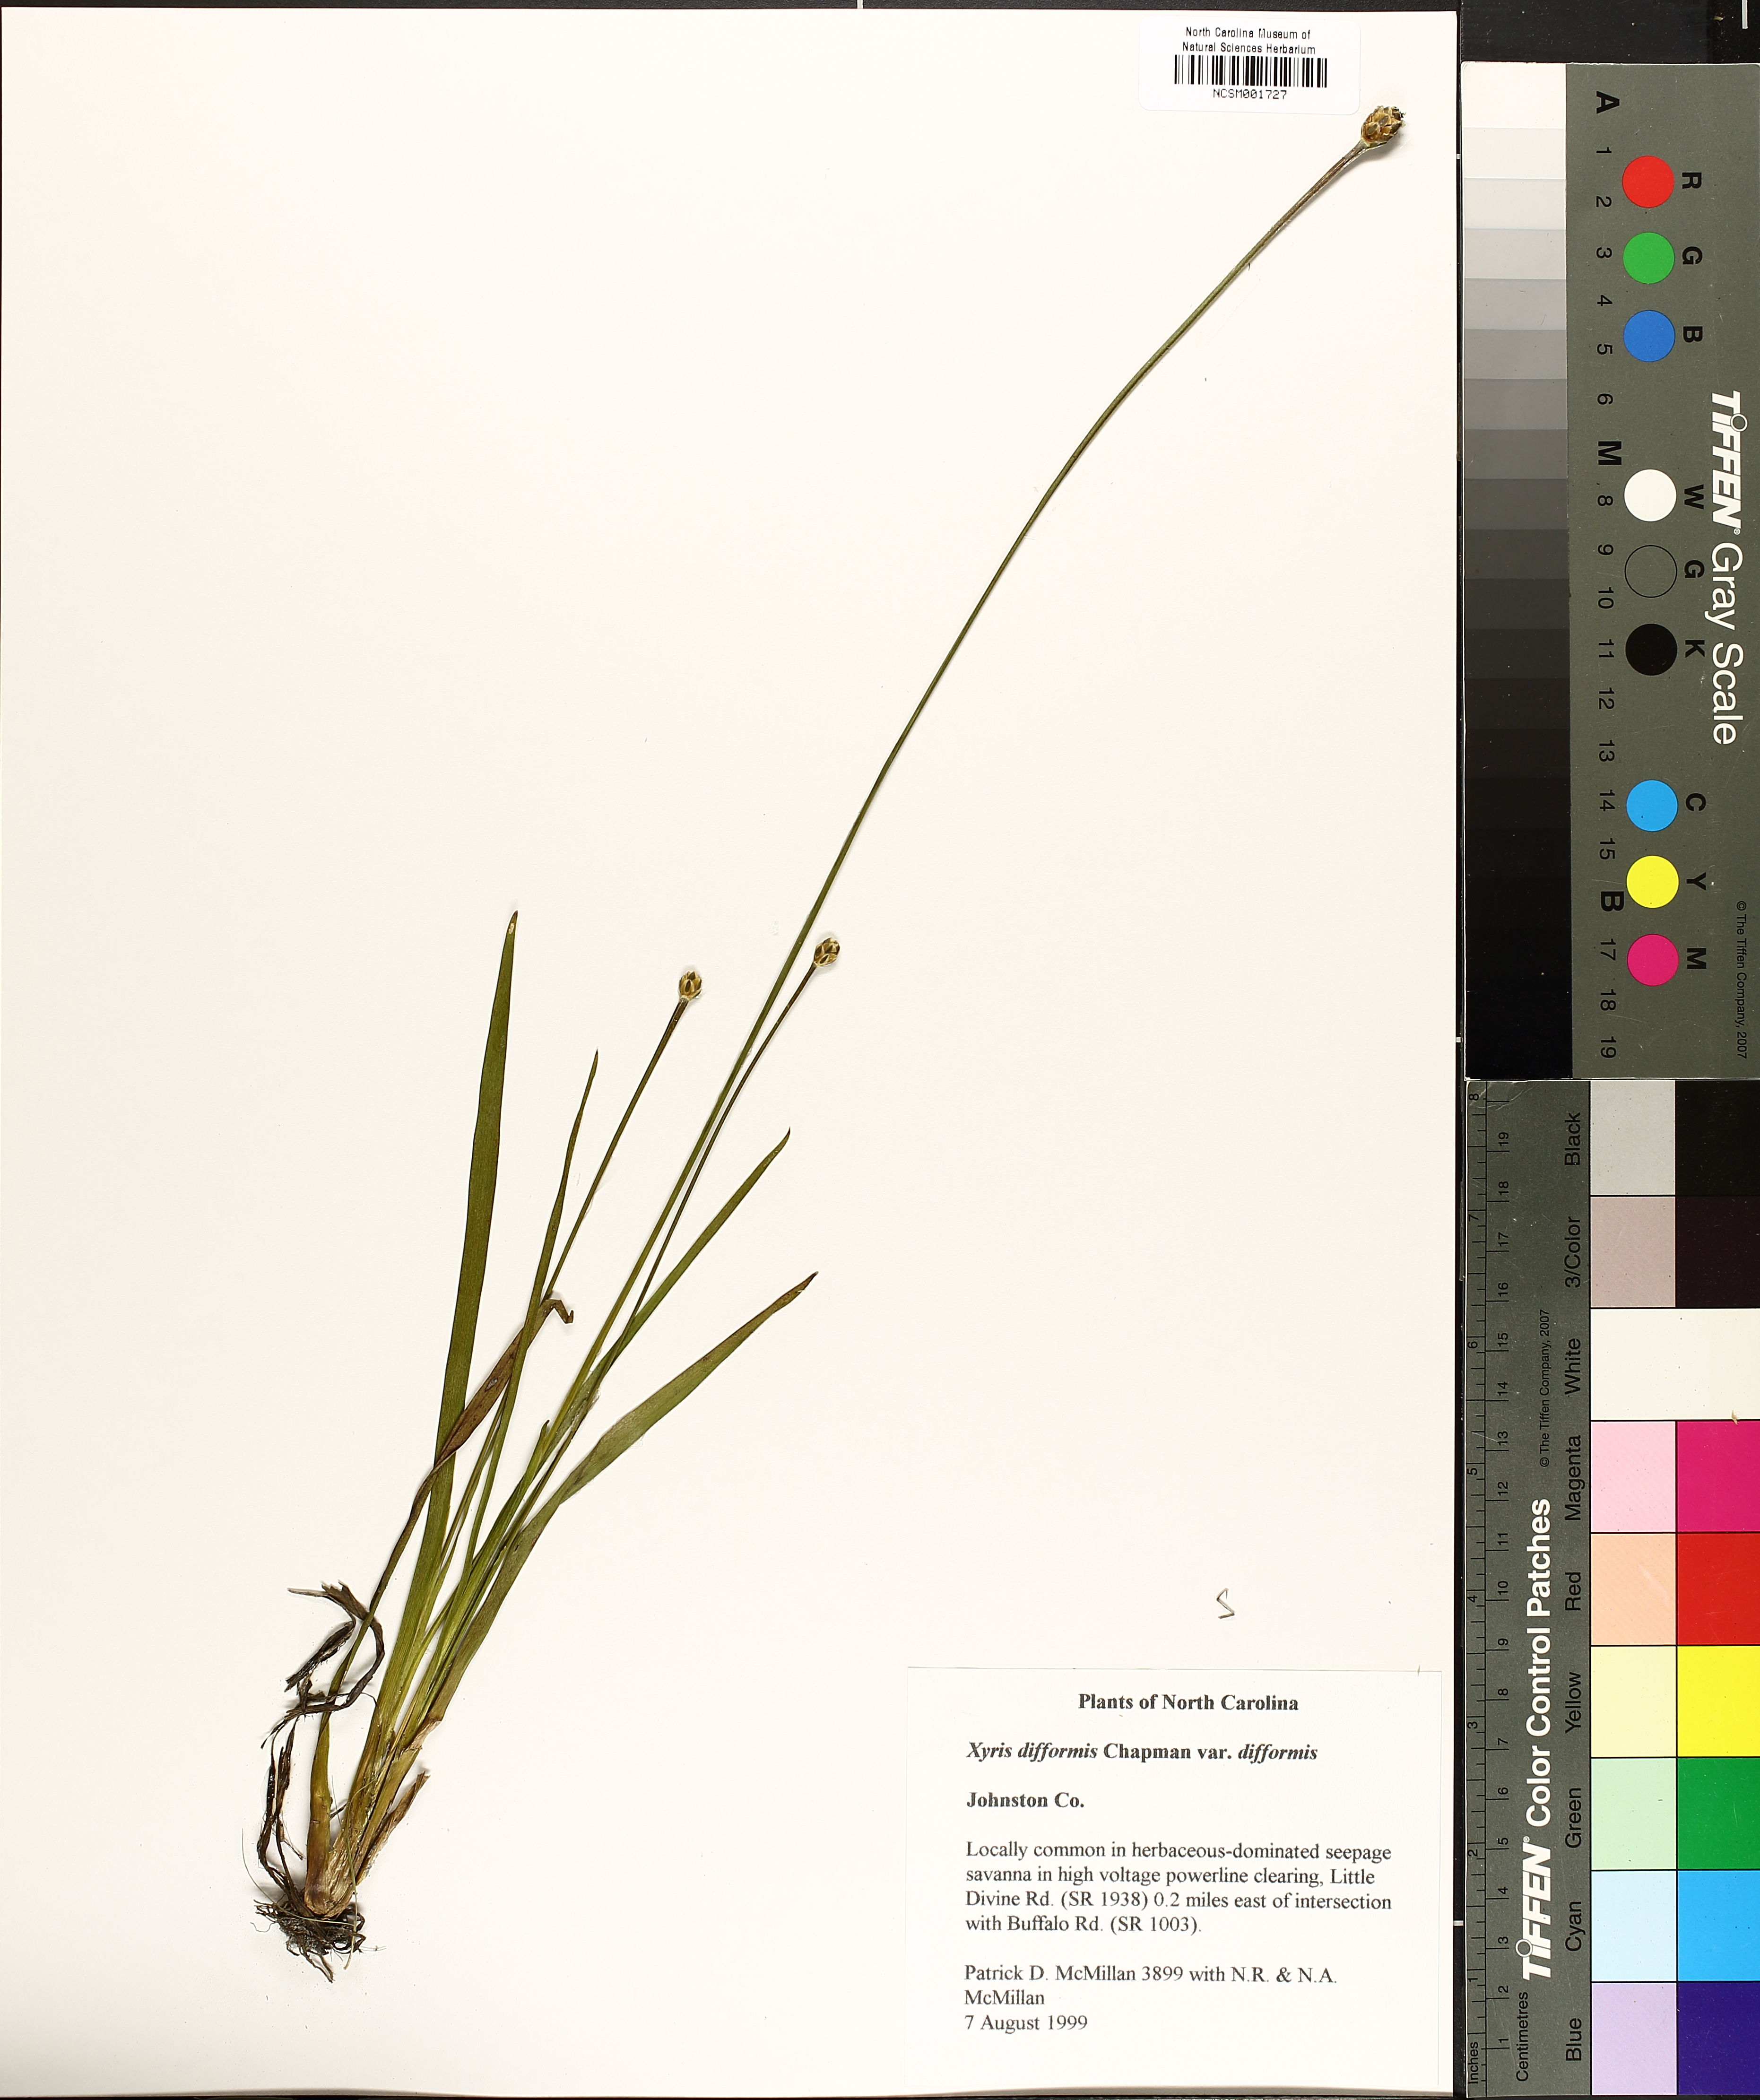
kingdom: Plantae
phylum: Tracheophyta
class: Liliopsida
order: Poales
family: Xyridaceae
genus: Xyris
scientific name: Xyris difformis
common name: Bog yellow-eyed-grass
